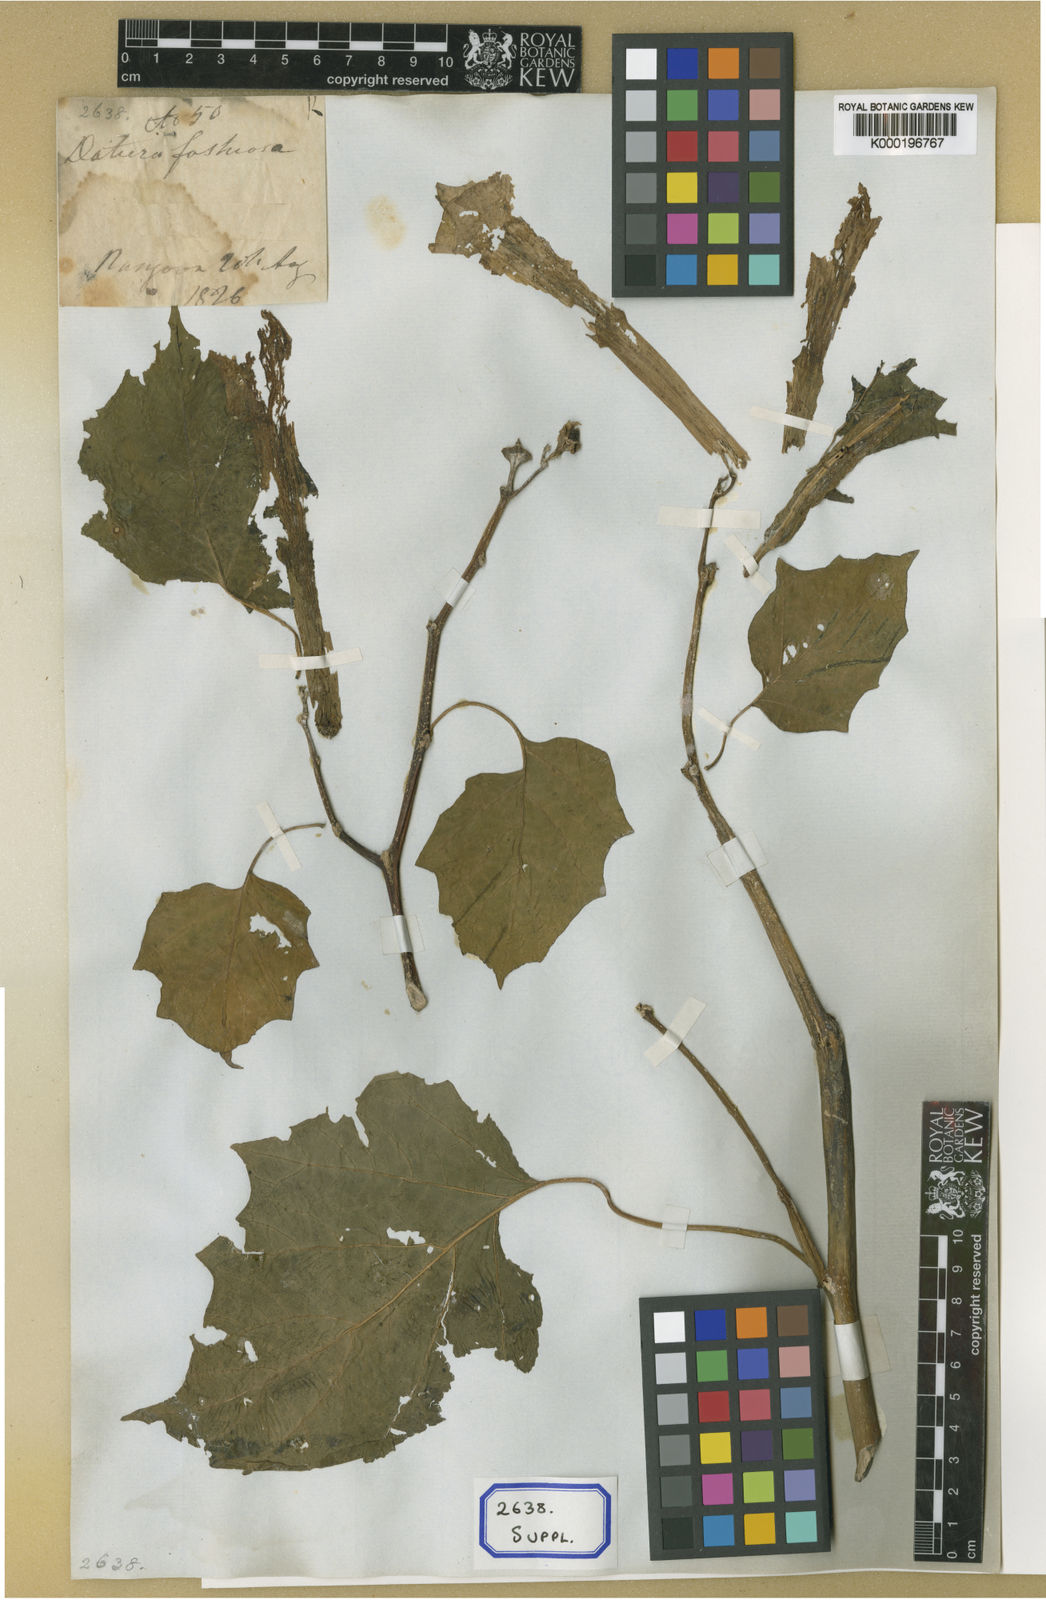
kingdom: Plantae
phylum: Tracheophyta
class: Magnoliopsida
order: Solanales
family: Solanaceae
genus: Datura
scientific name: Datura metel
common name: Jimsonweed
